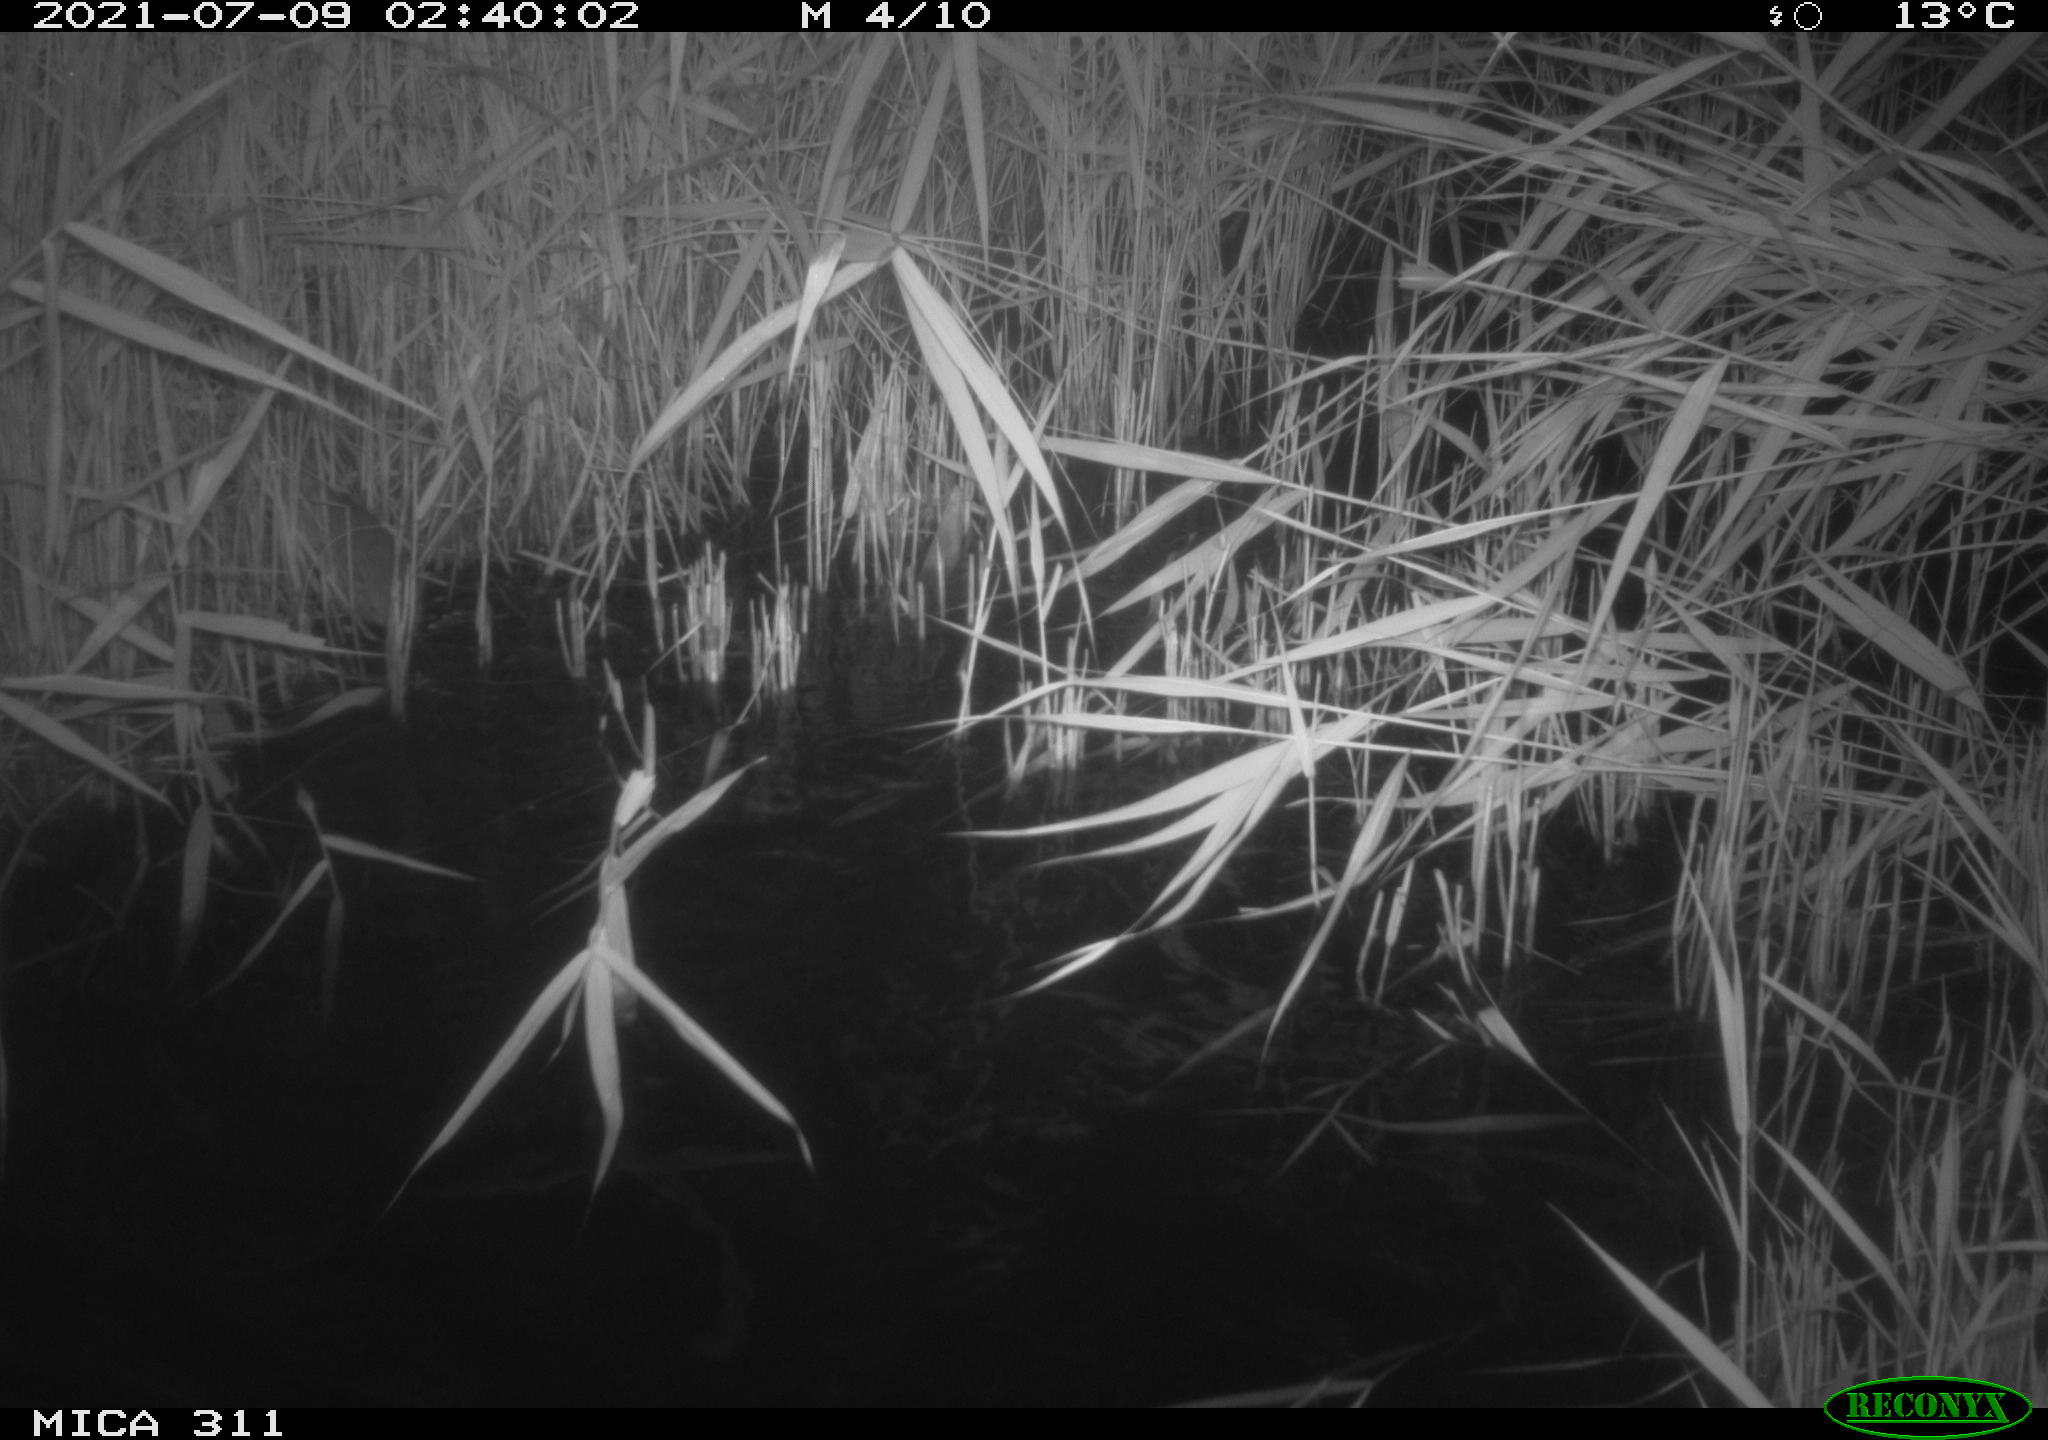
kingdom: Animalia
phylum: Chordata
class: Mammalia
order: Rodentia
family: Muridae
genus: Rattus
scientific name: Rattus norvegicus
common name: Brown rat
